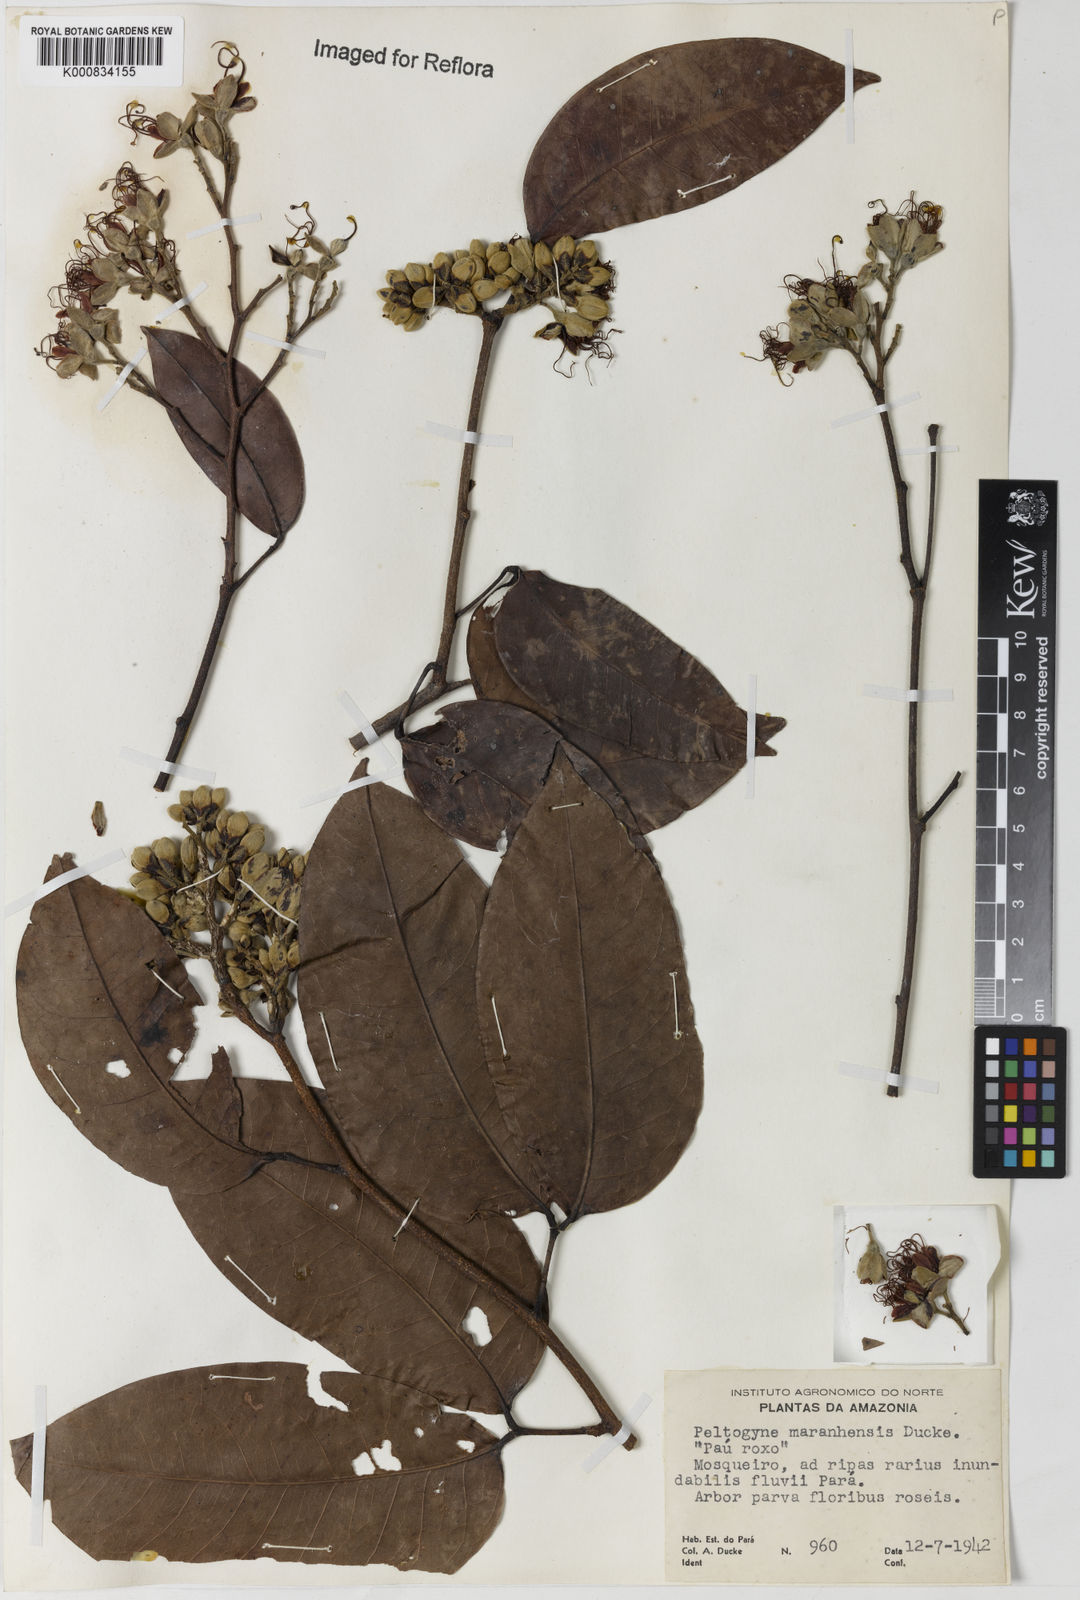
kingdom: Plantae
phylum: Tracheophyta
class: Magnoliopsida
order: Fabales
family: Fabaceae
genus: Peltogyne
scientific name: Peltogyne maranhensis
